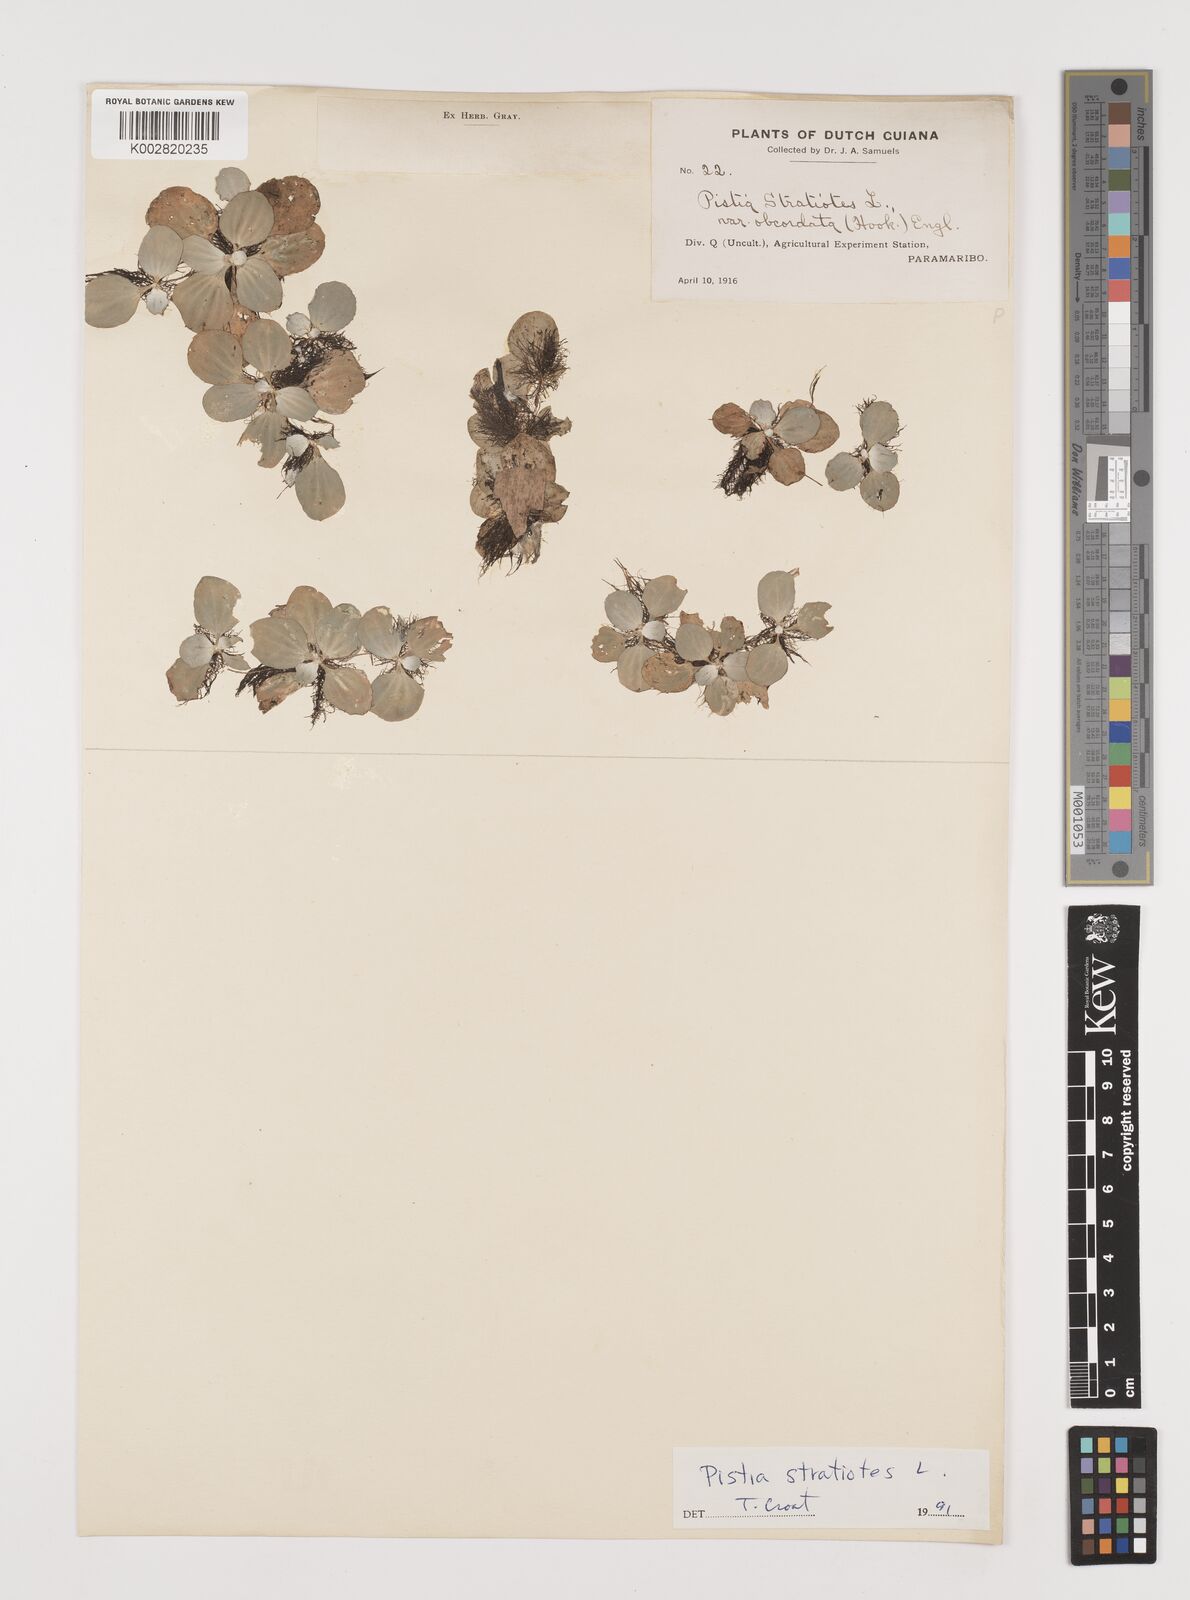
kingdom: Plantae
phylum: Tracheophyta
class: Liliopsida
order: Alismatales
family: Araceae
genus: Pistia
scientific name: Pistia stratiotes
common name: Water lettuce
